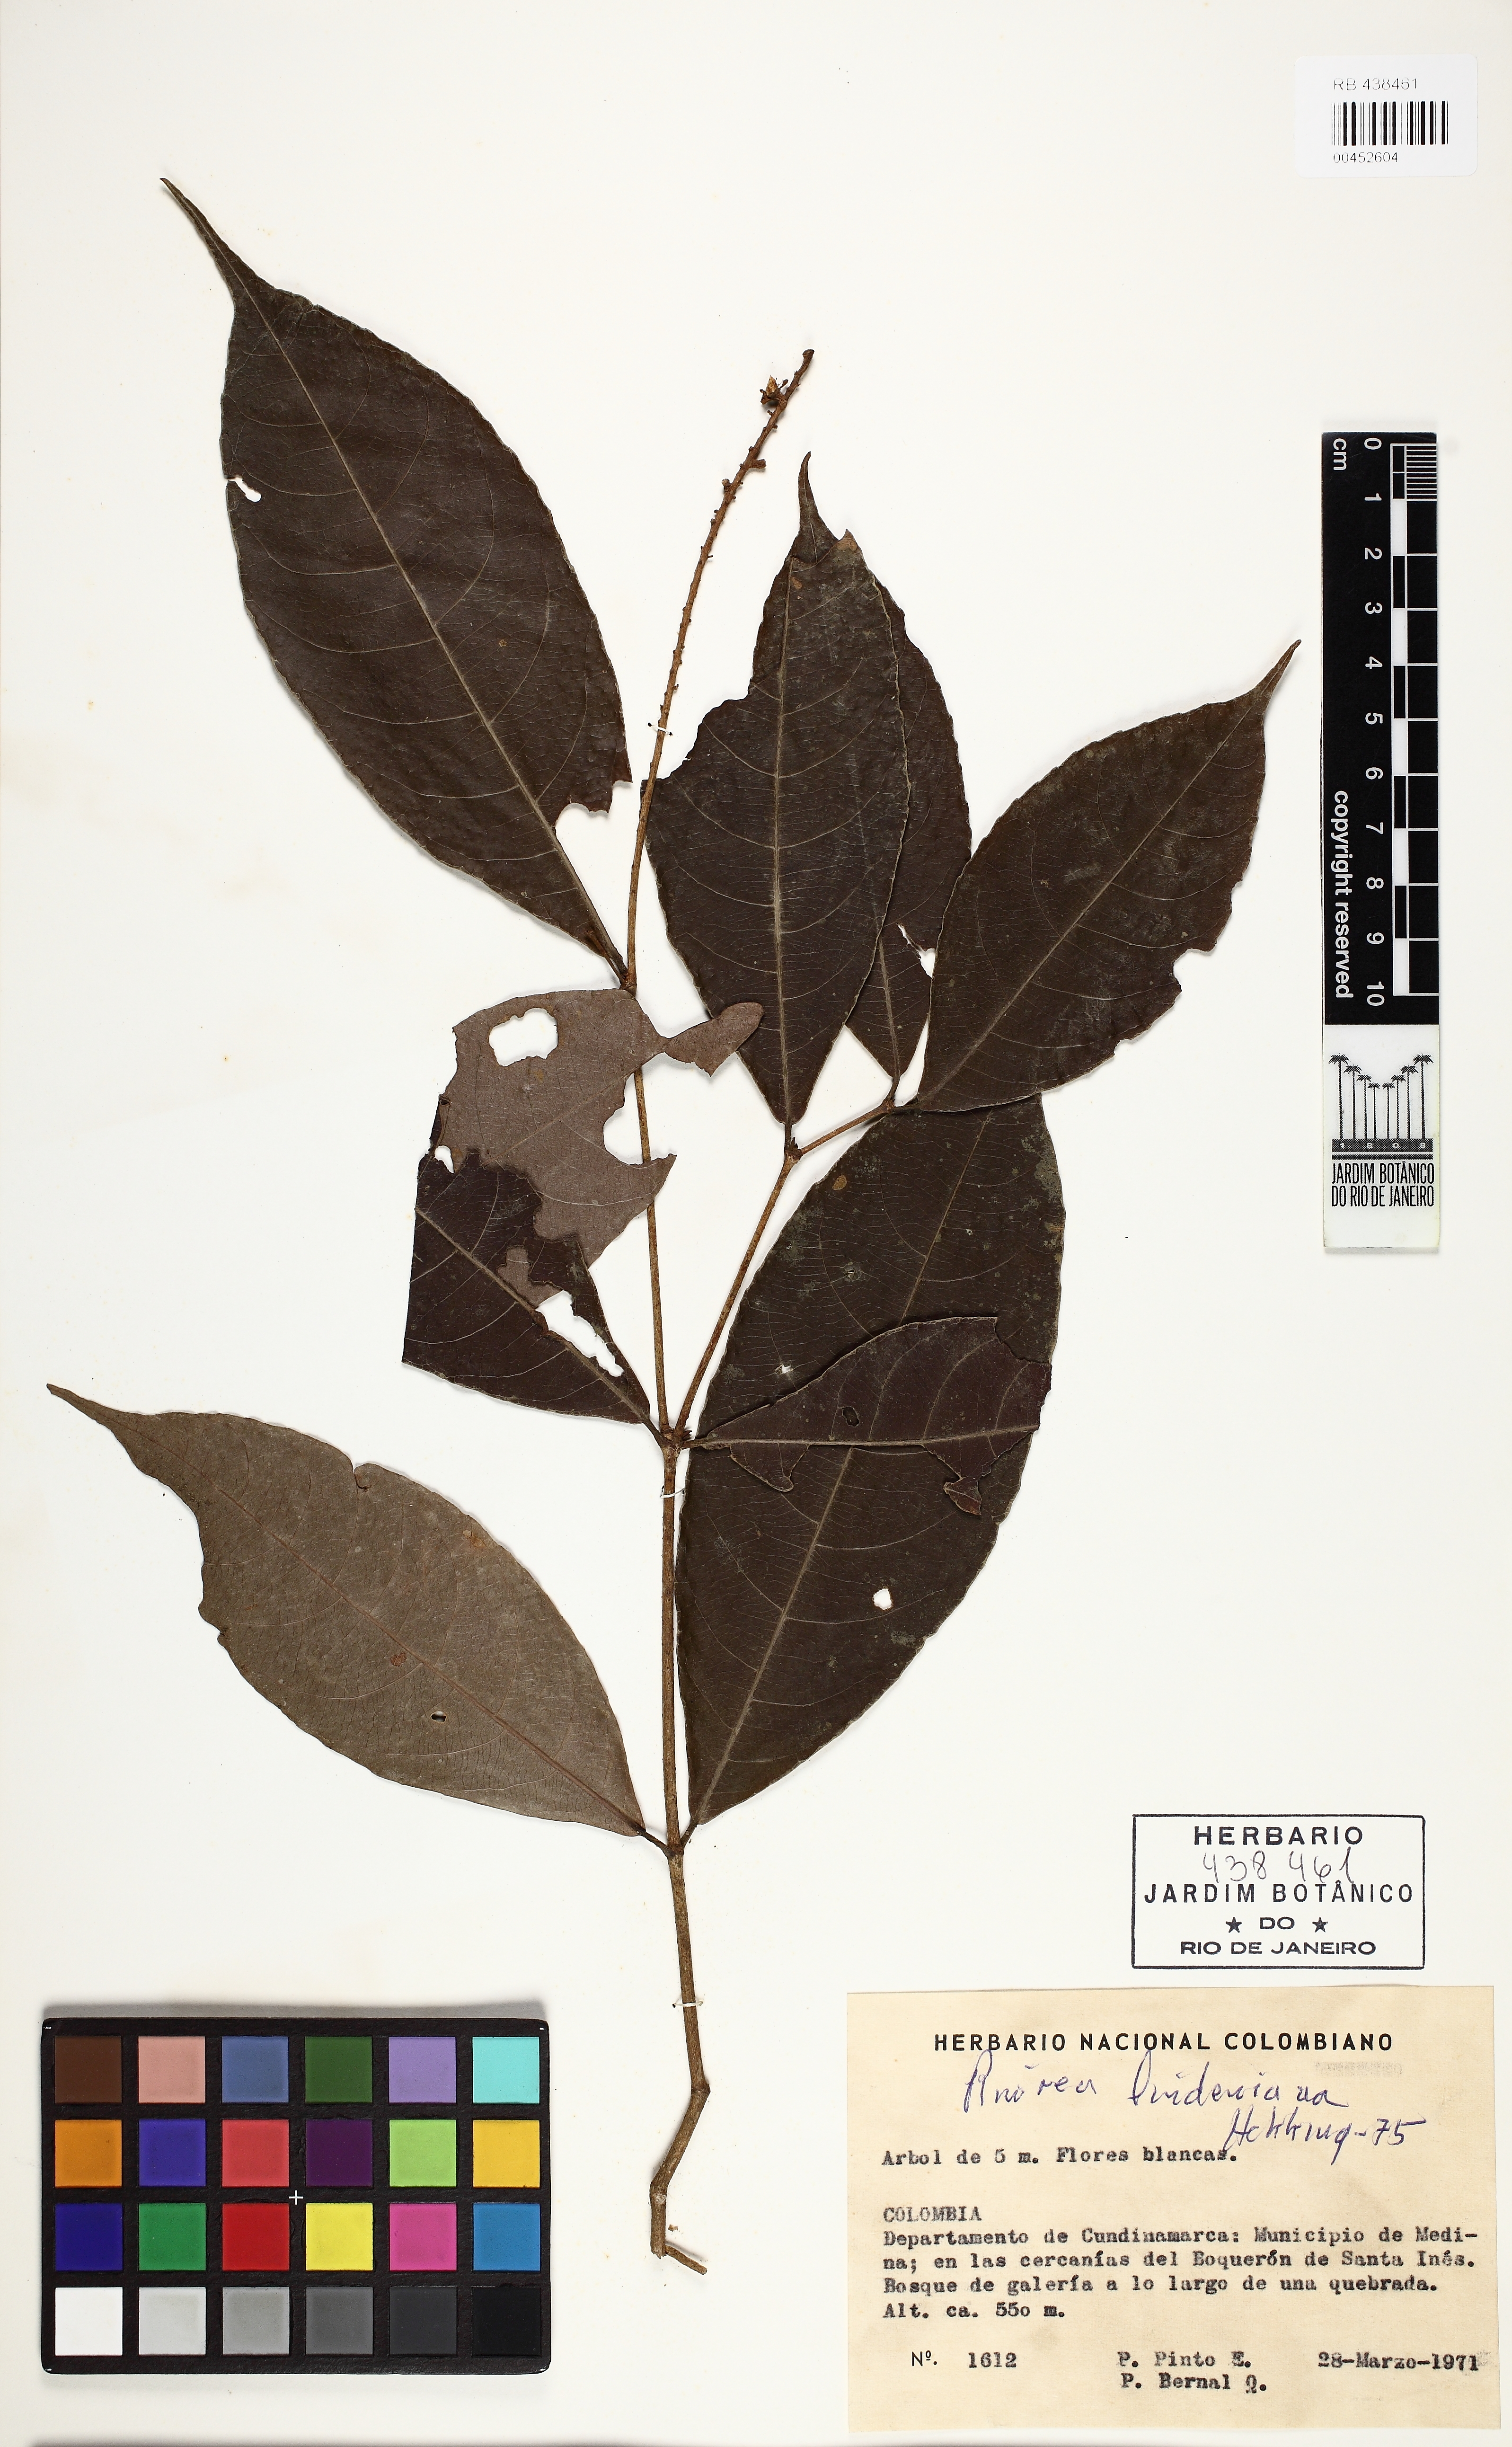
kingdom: Plantae
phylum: Tracheophyta
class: Magnoliopsida
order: Malpighiales
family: Violaceae
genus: Rinorea
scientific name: Rinorea lindeniana
